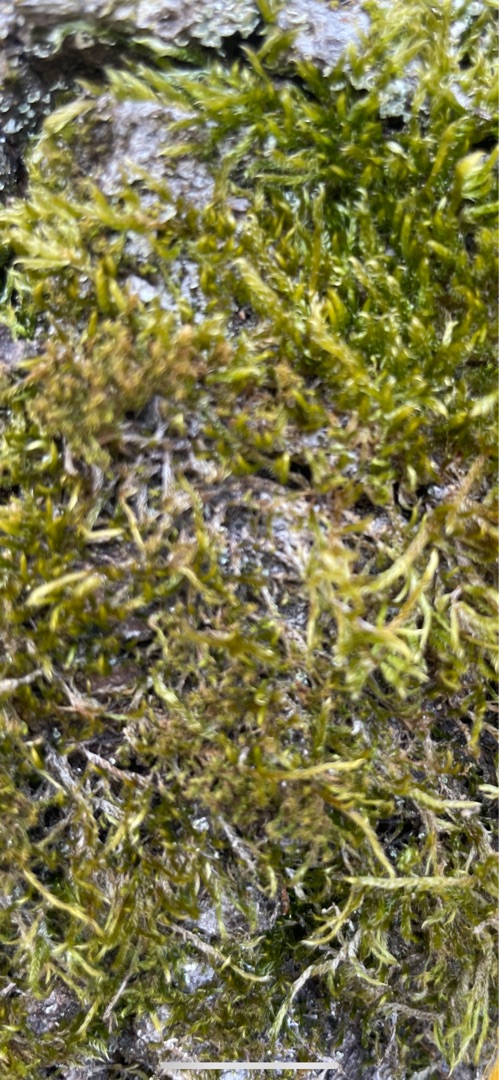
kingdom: Plantae
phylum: Bryophyta
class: Bryopsida
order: Hypnales
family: Hypnaceae
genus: Hypnum
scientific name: Hypnum
